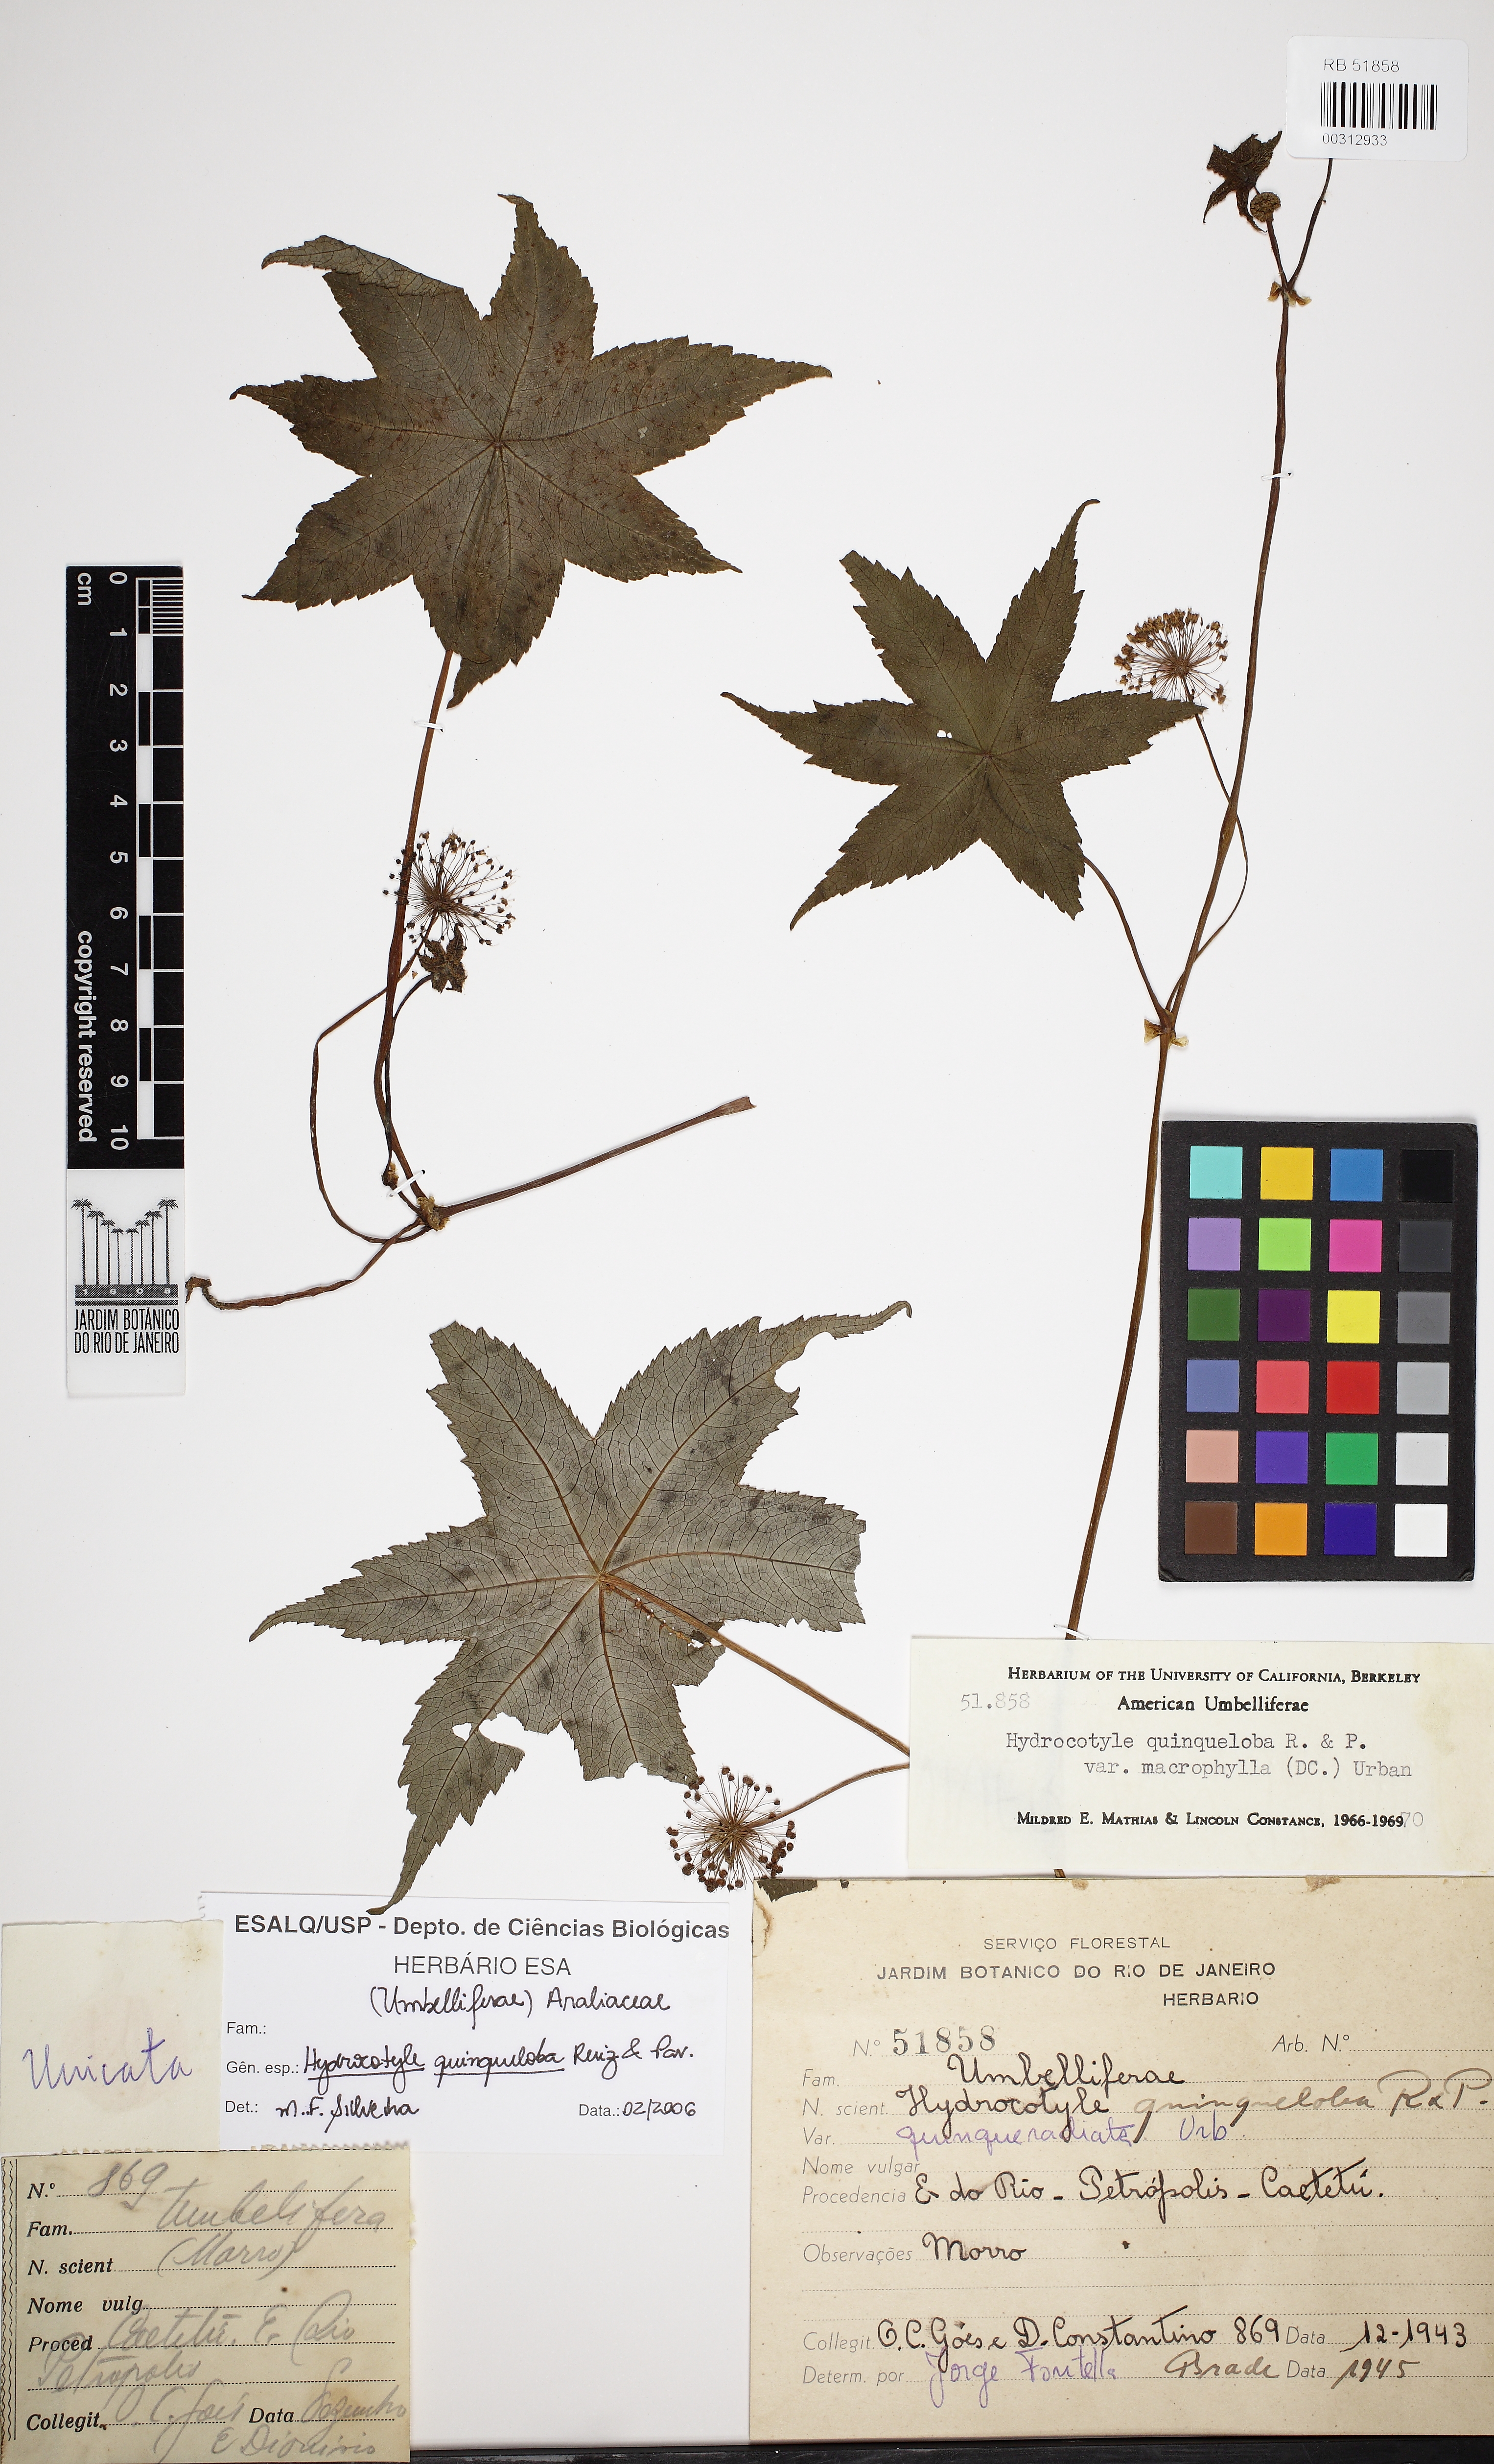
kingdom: Plantae
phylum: Tracheophyta
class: Magnoliopsida
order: Apiales
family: Araliaceae
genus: Hydrocotyle
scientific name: Hydrocotyle quinqueloba
